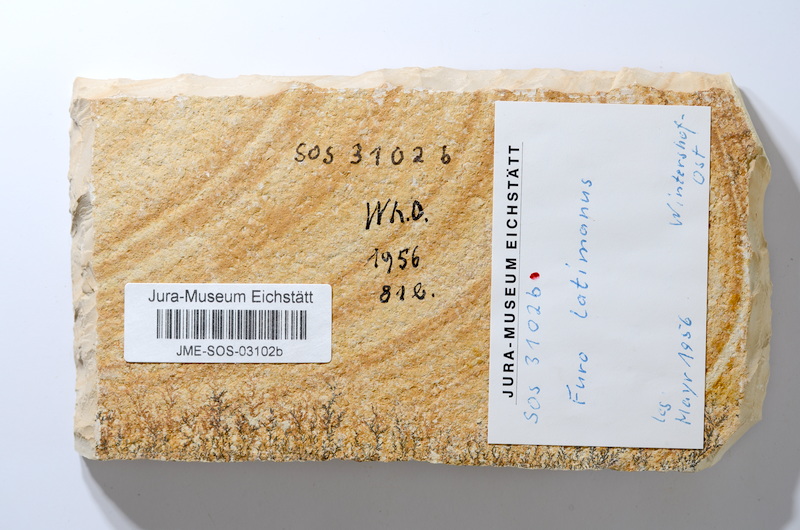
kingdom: Animalia
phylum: Chordata
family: Ophiopsiellidae
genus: Furo
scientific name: Furo longiserratus
